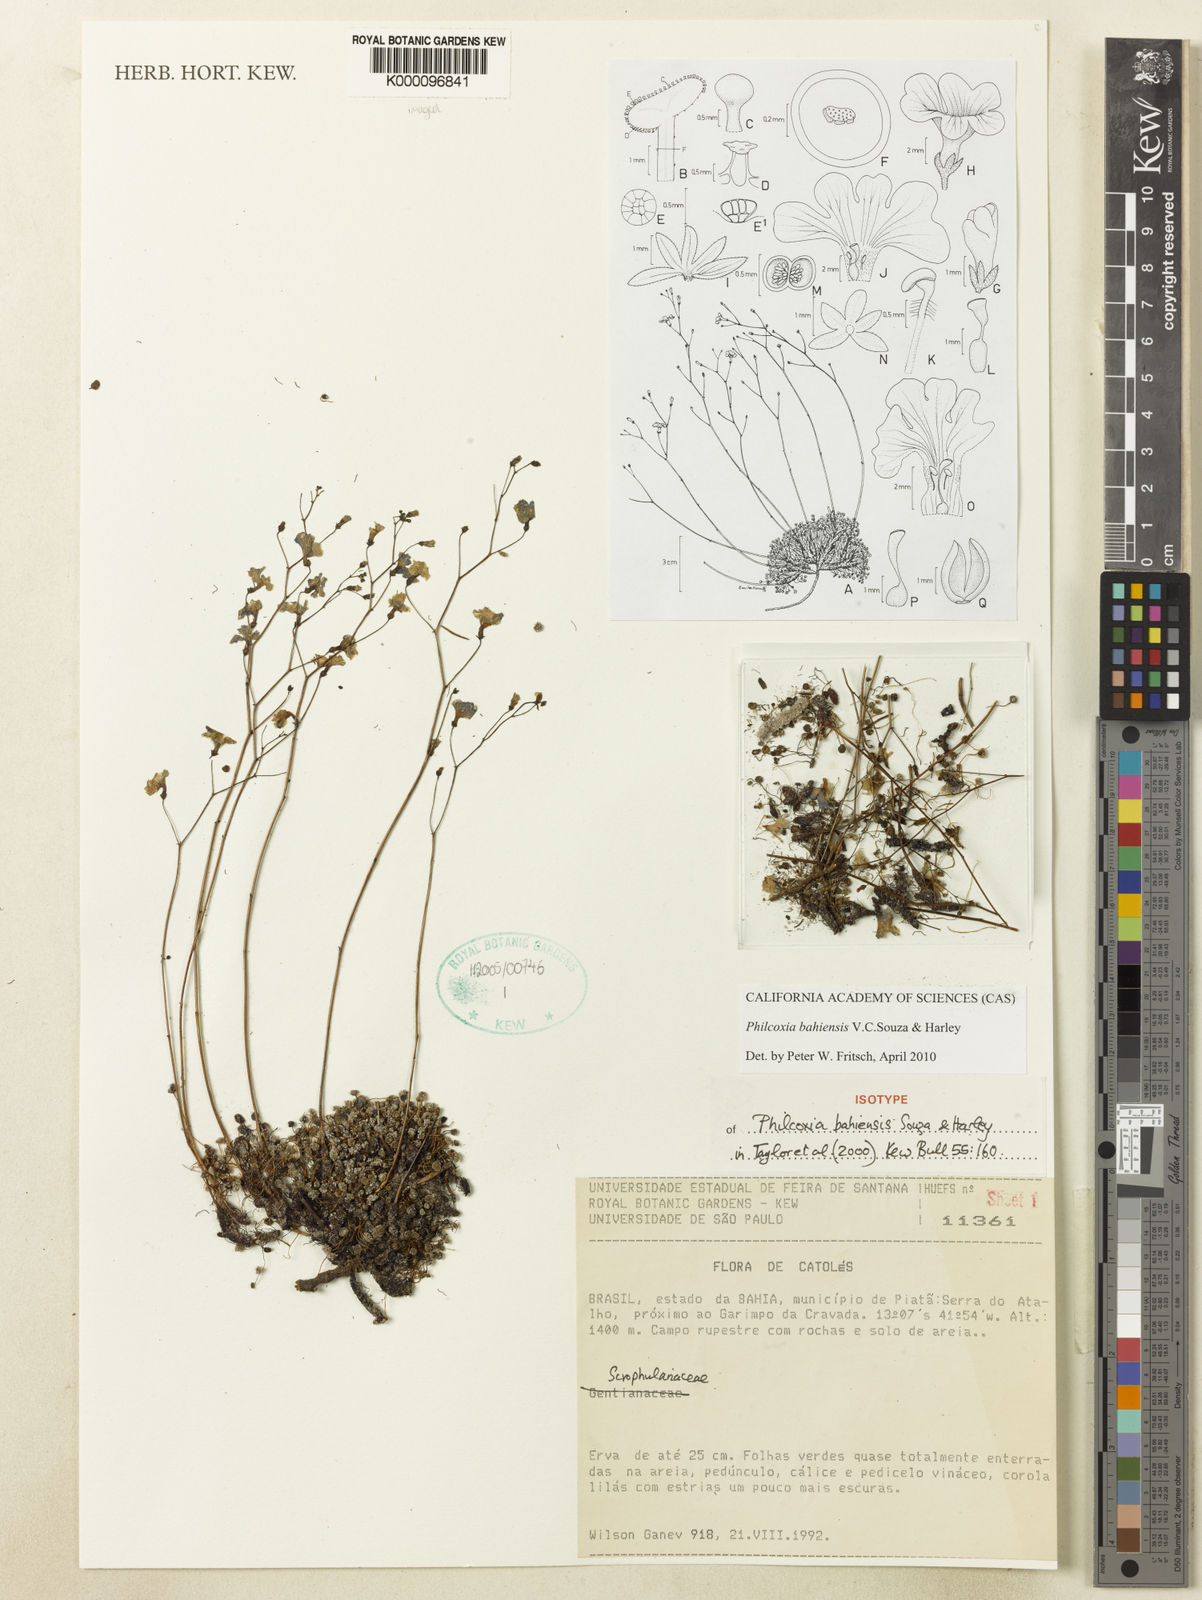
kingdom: Plantae
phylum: Tracheophyta
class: Magnoliopsida
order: Lamiales
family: Plantaginaceae
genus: Philcoxia
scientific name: Philcoxia bahiensis
